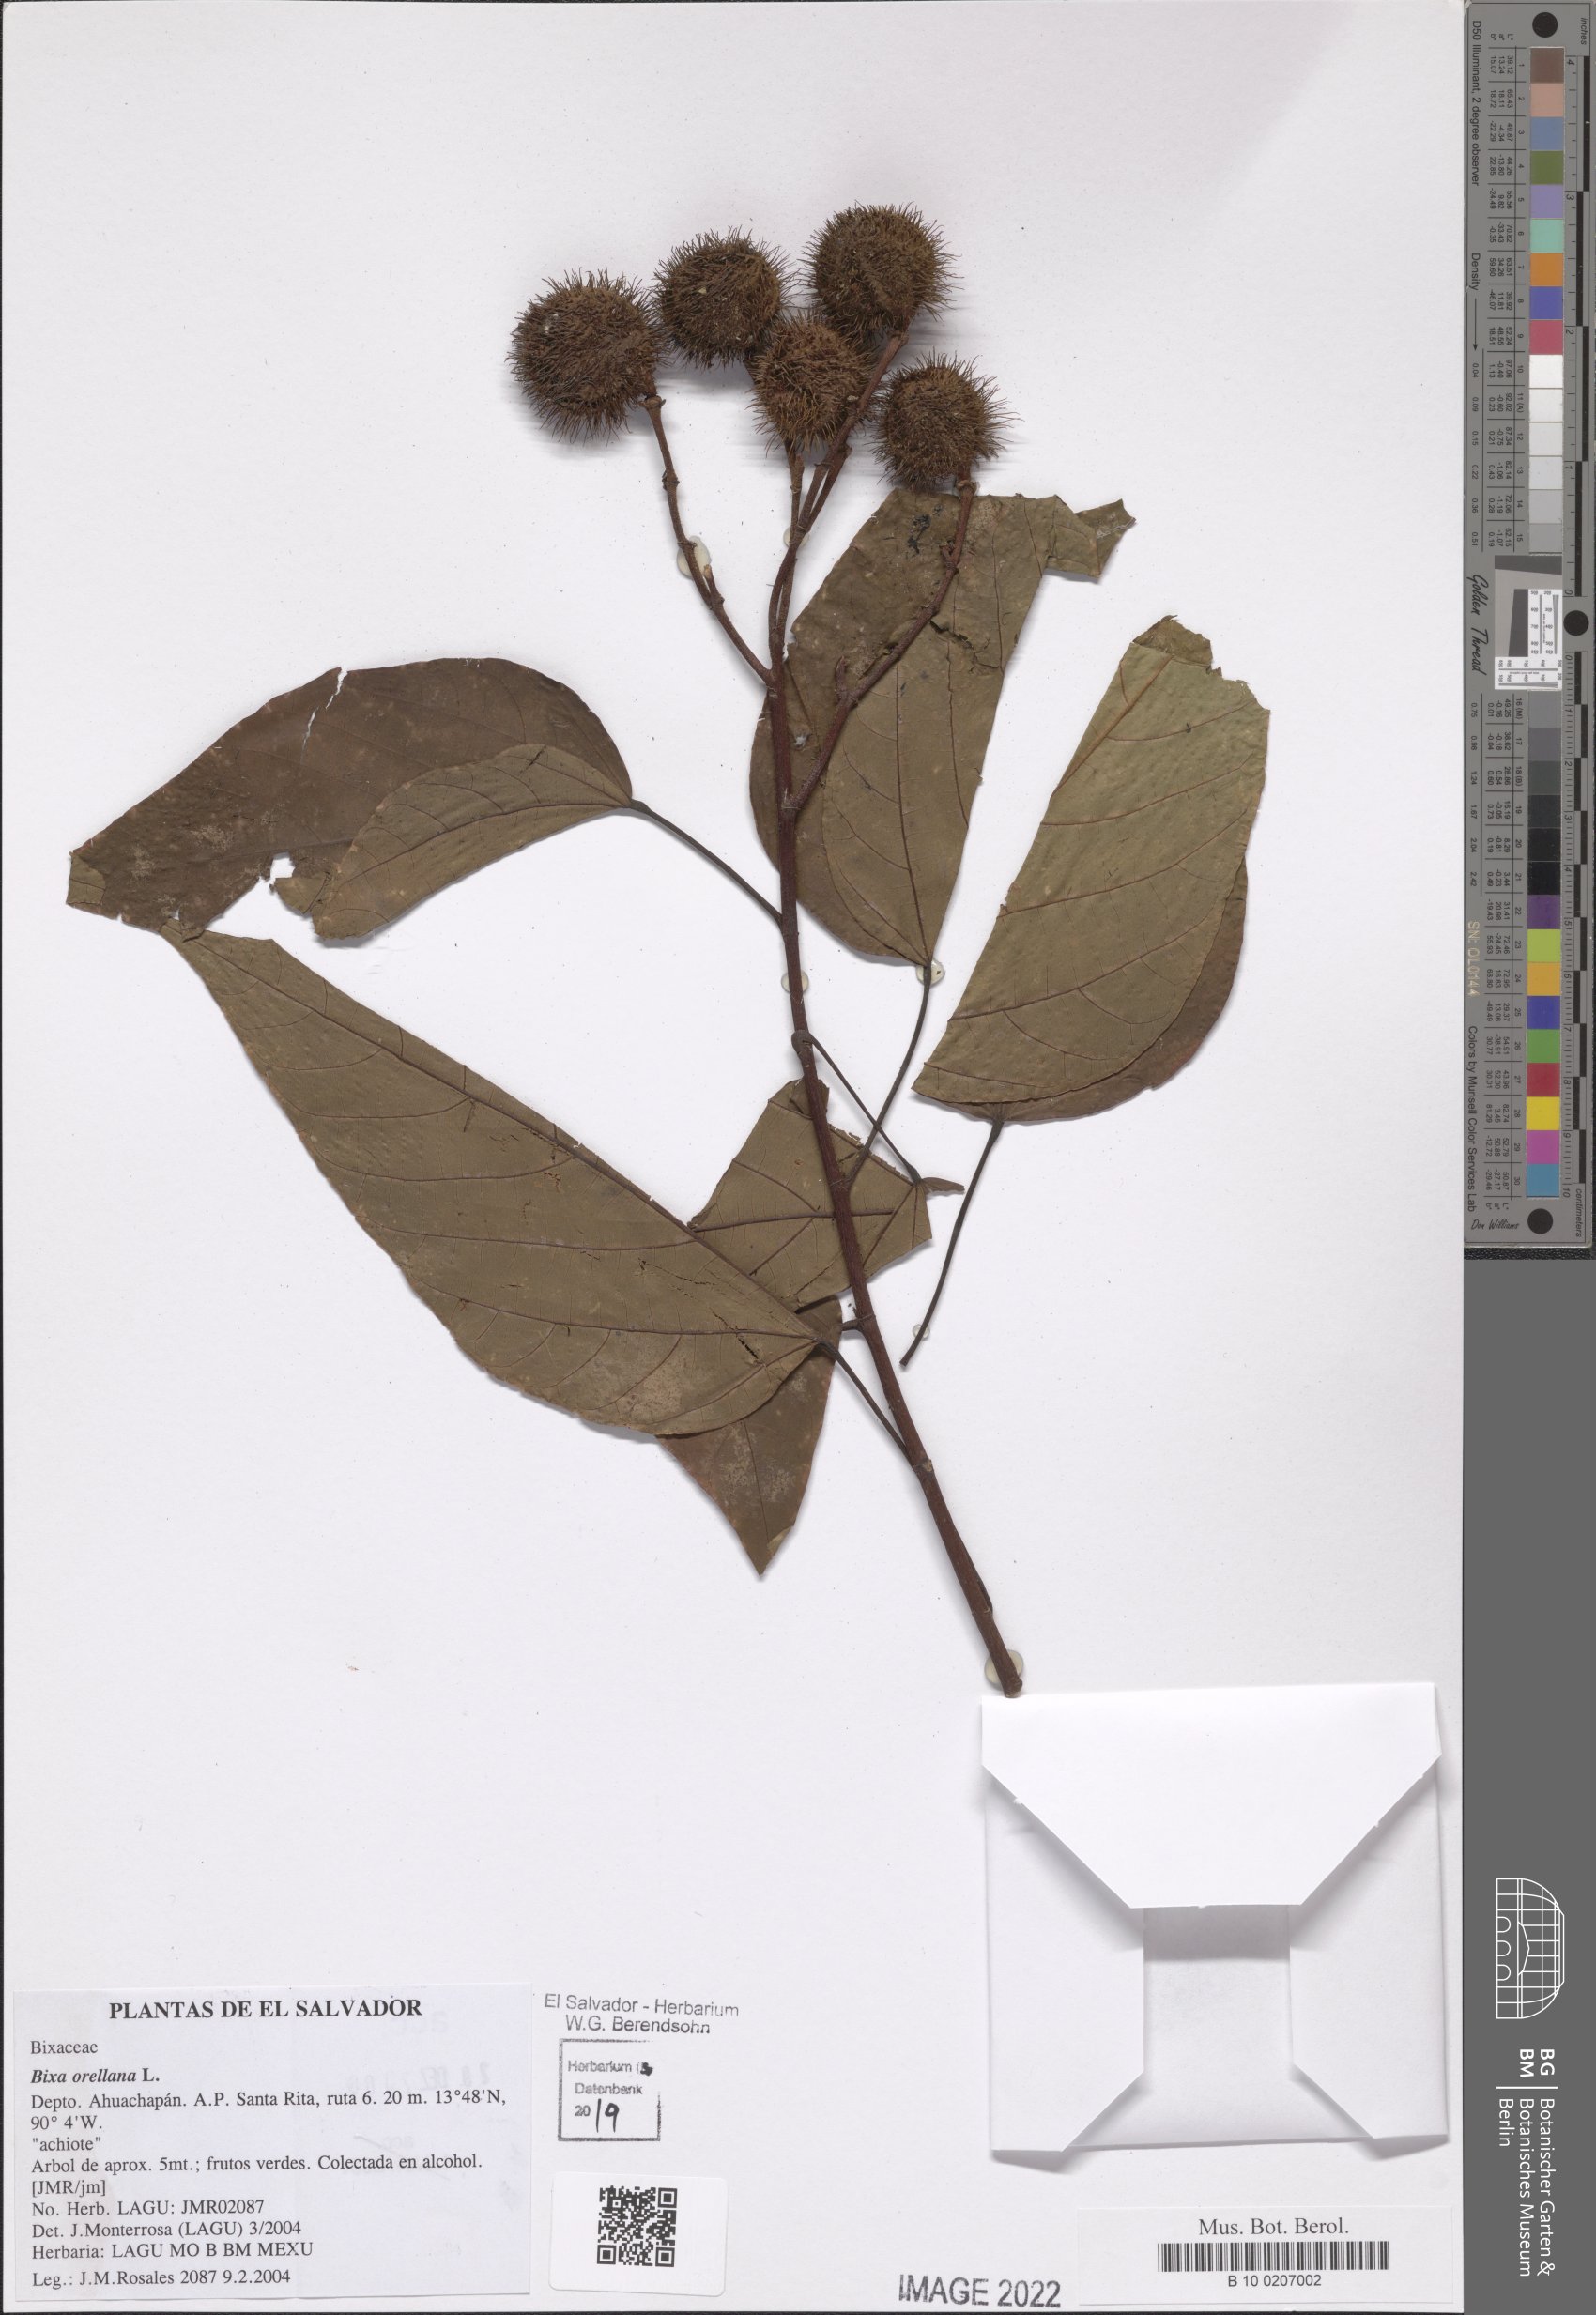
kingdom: Plantae
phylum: Tracheophyta
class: Magnoliopsida
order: Malvales
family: Bixaceae
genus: Bixa
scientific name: Bixa orellana
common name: Lipsticktree
